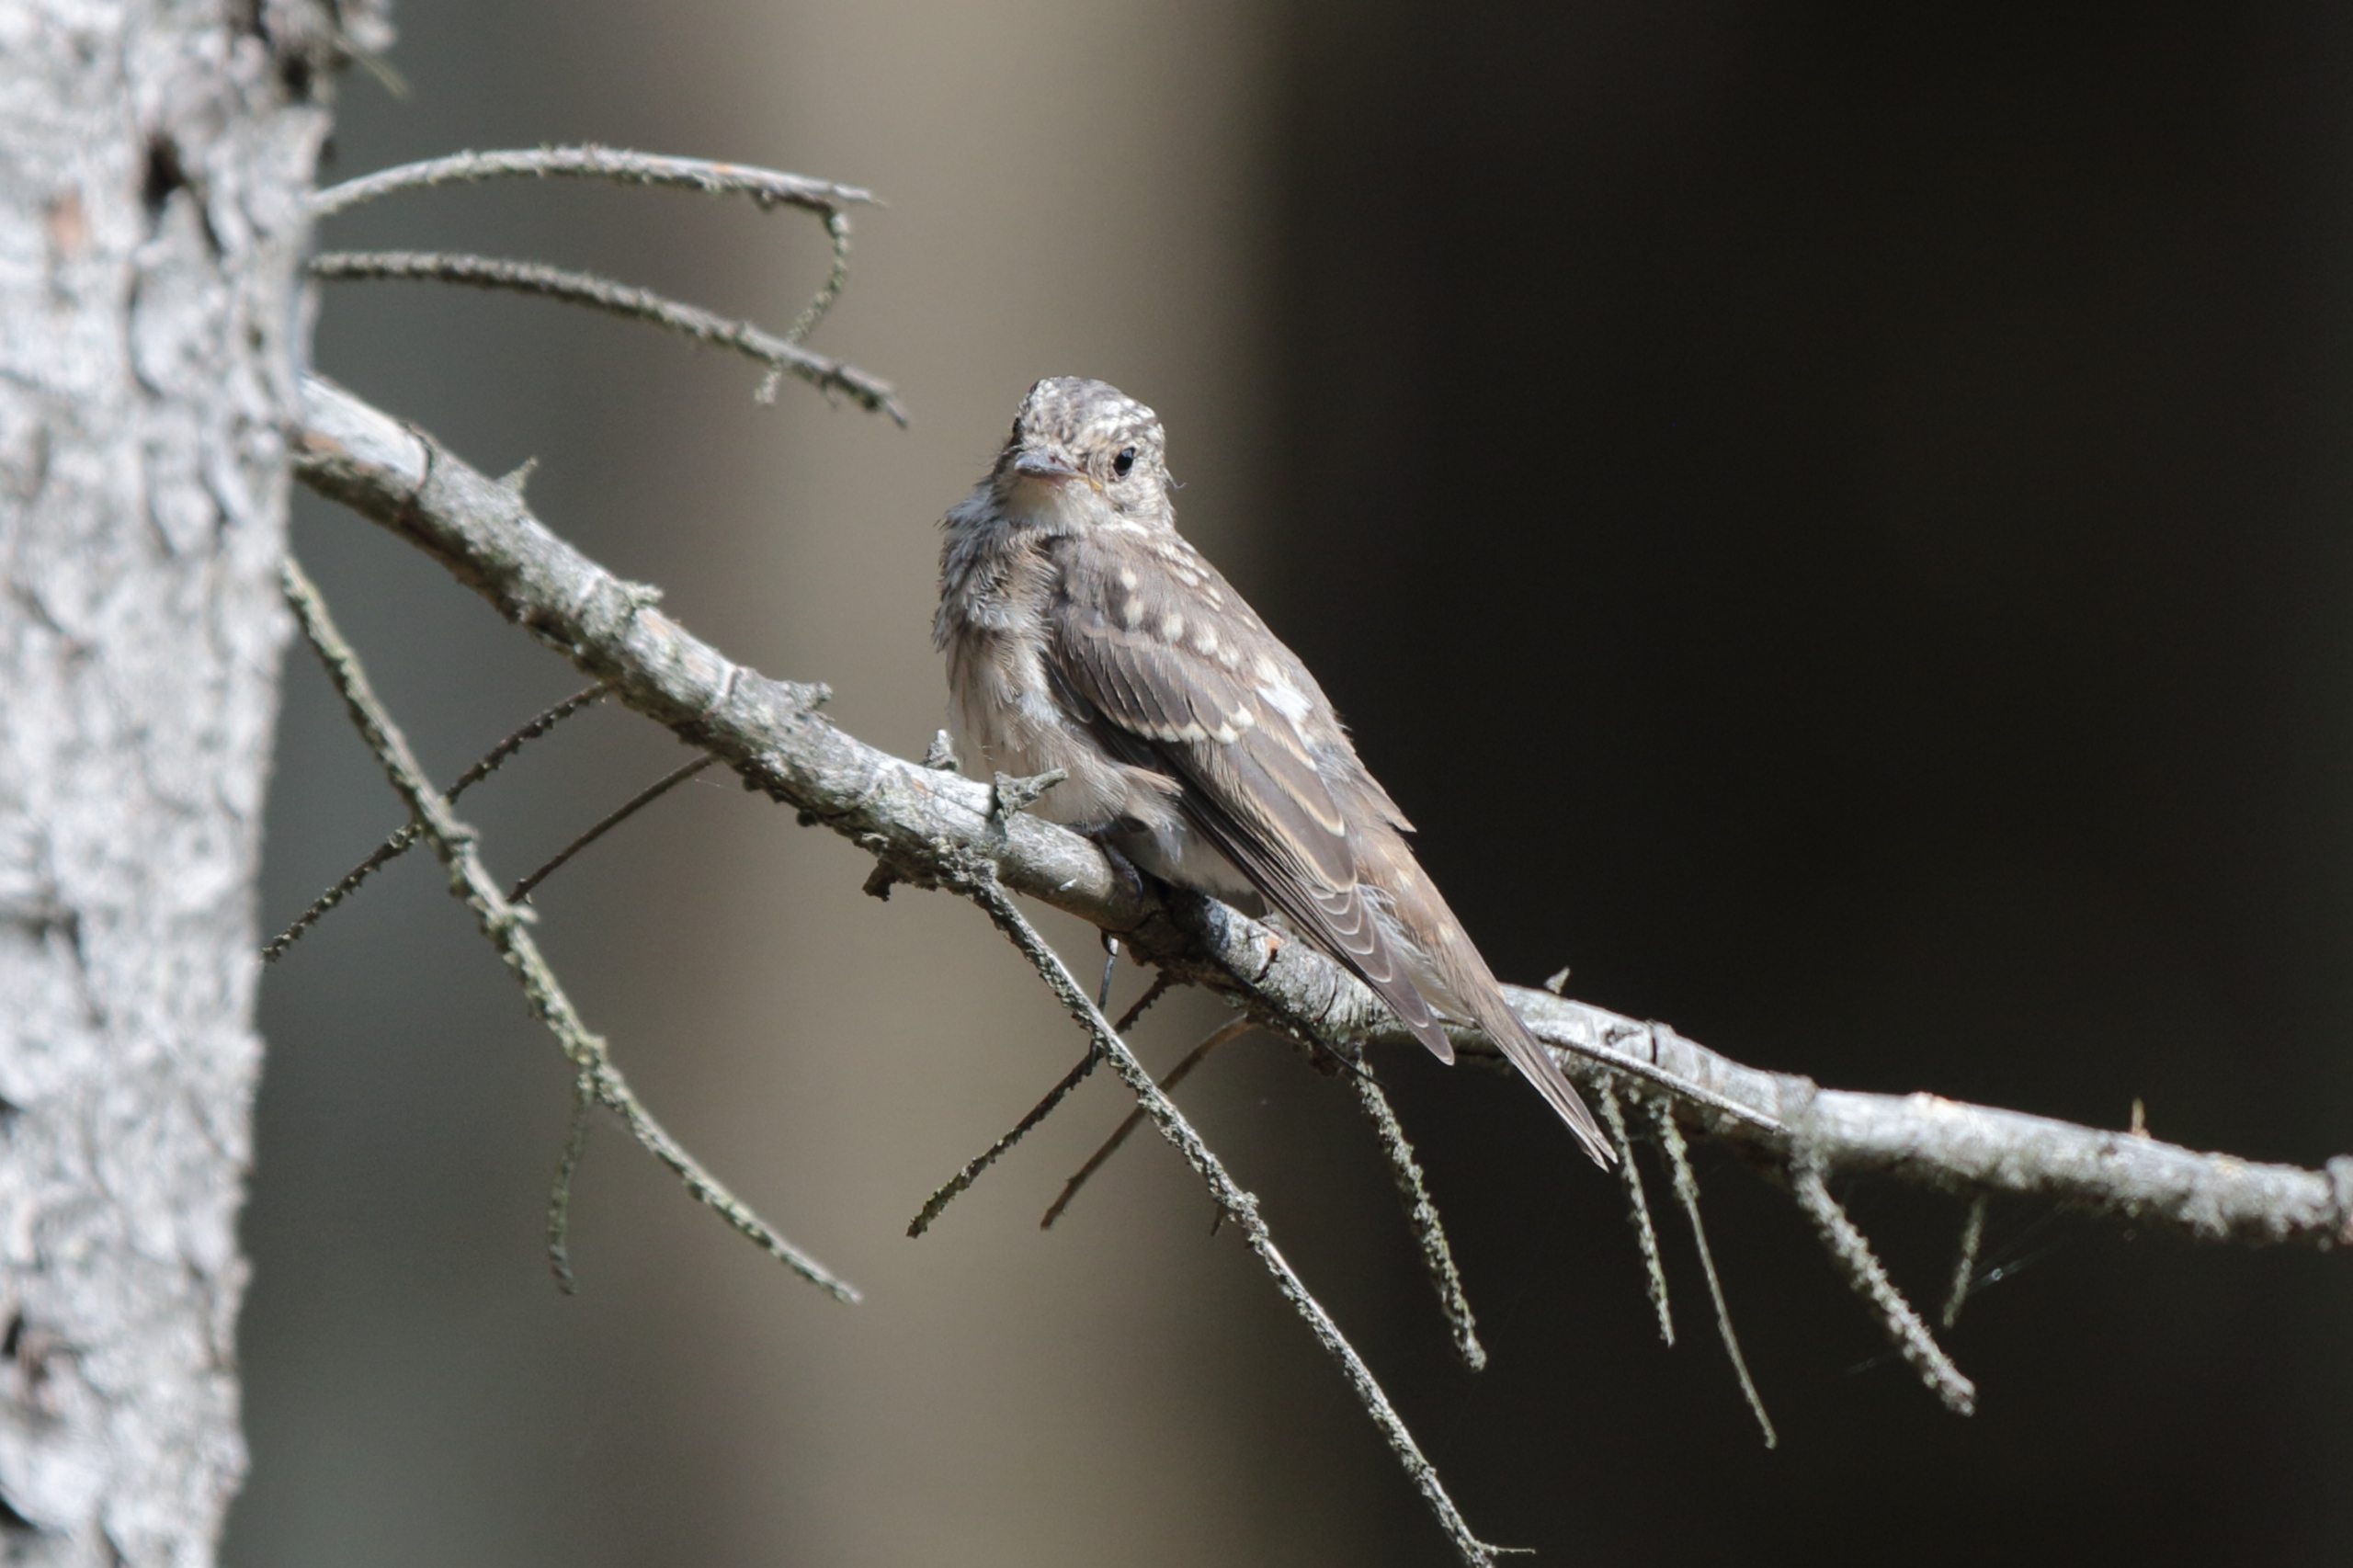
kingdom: Animalia
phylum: Chordata
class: Aves
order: Passeriformes
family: Muscicapidae
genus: Muscicapa
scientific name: Muscicapa striata
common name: Grå fluesnapper
